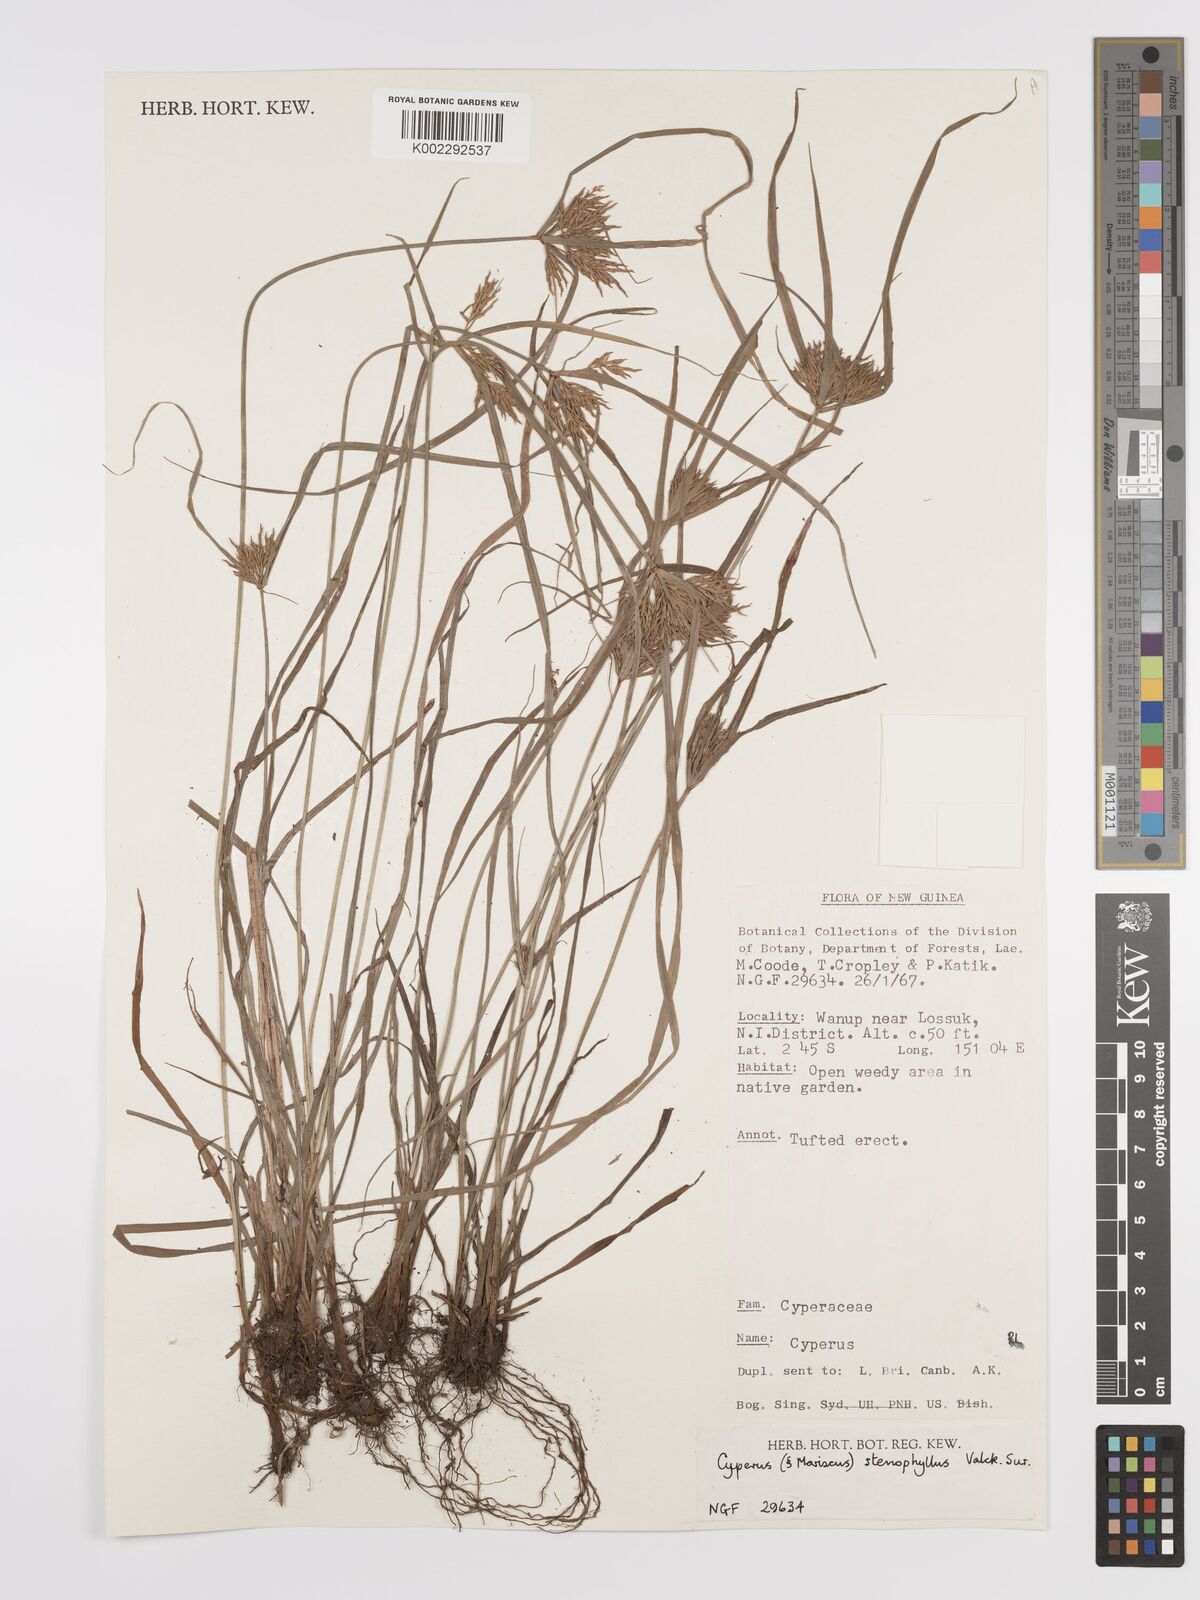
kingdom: Plantae
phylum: Tracheophyta
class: Liliopsida
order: Poales
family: Cyperaceae
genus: Cyperus
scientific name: Cyperus stenophyllus
